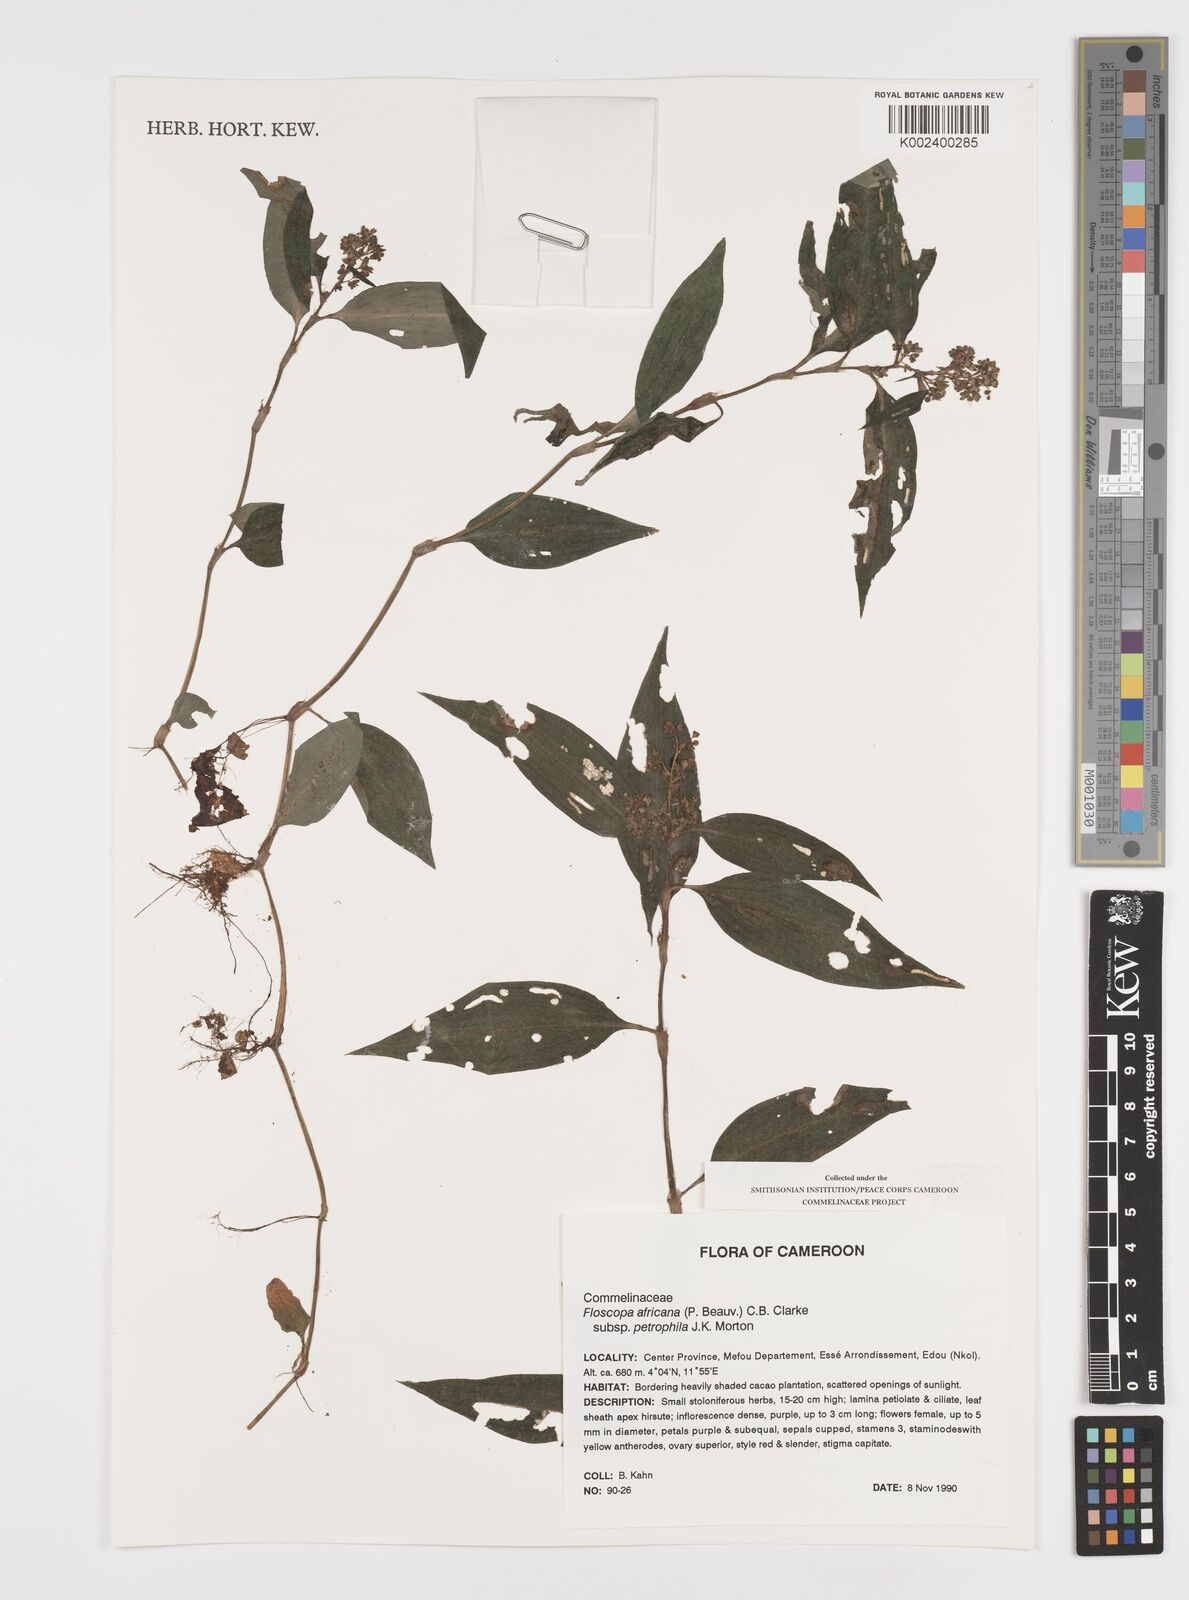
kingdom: Plantae
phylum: Tracheophyta
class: Liliopsida
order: Commelinales
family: Commelinaceae
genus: Floscopa
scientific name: Floscopa africana
